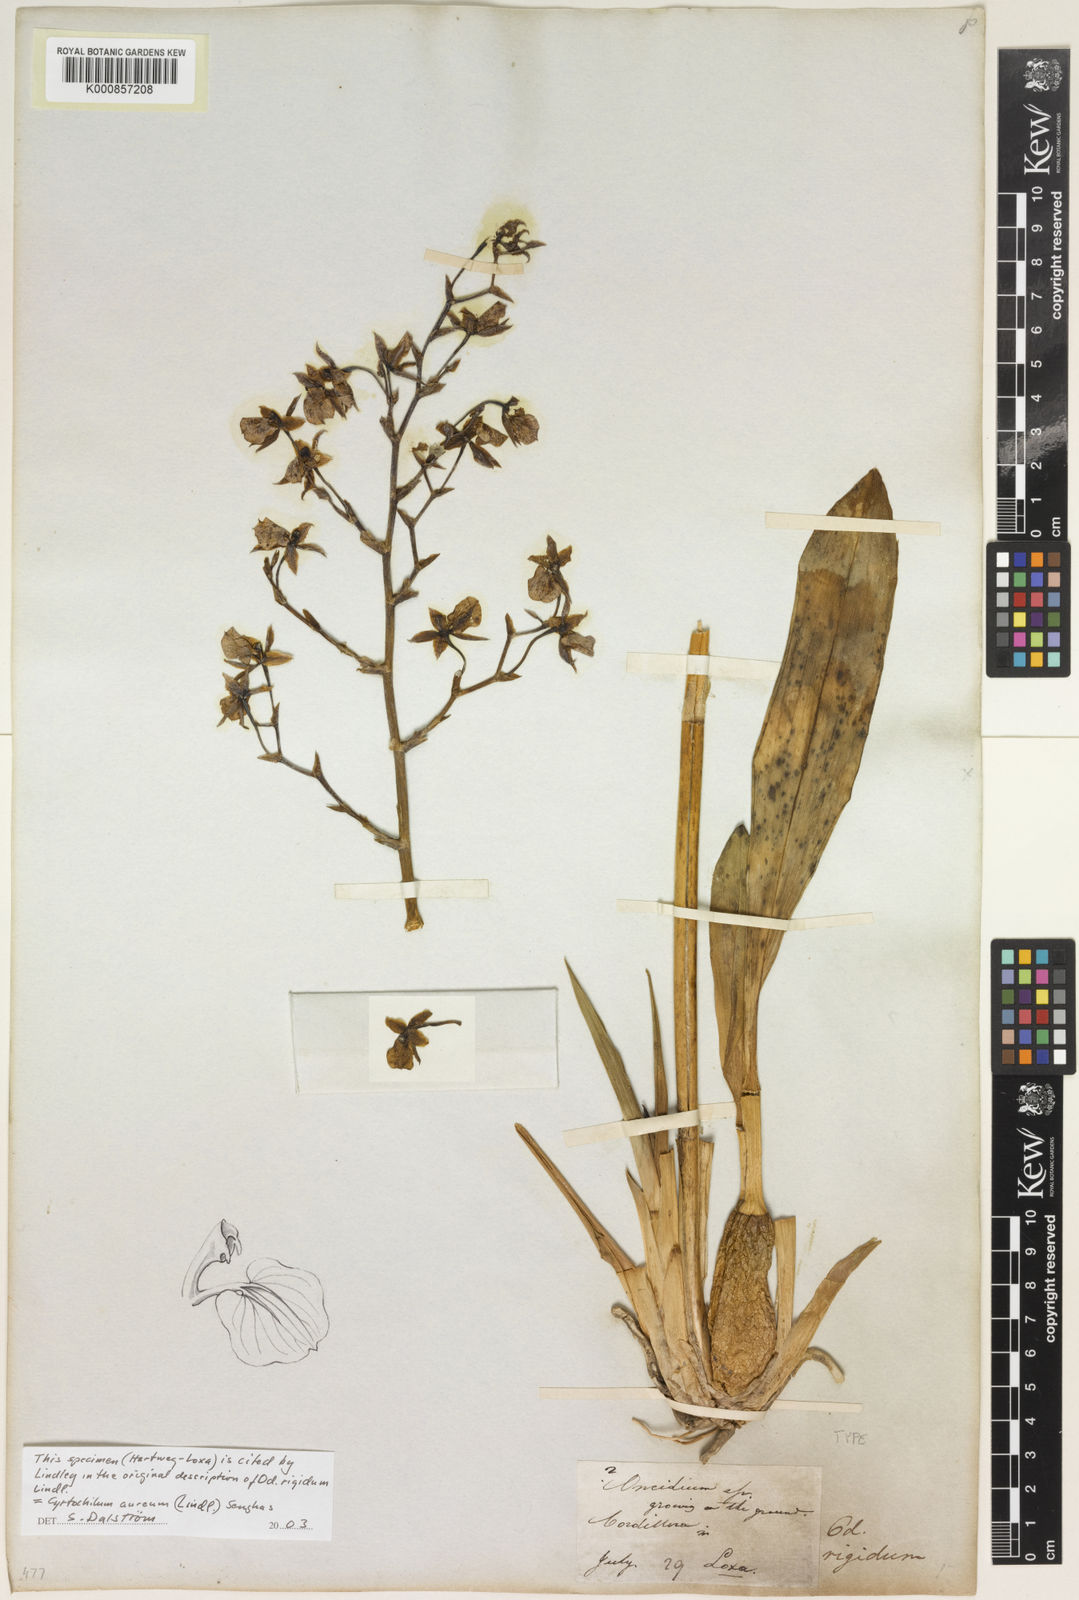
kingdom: Plantae
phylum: Tracheophyta
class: Liliopsida
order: Asparagales
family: Orchidaceae
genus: Cyrtochilum
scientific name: Cyrtochilum aureum
